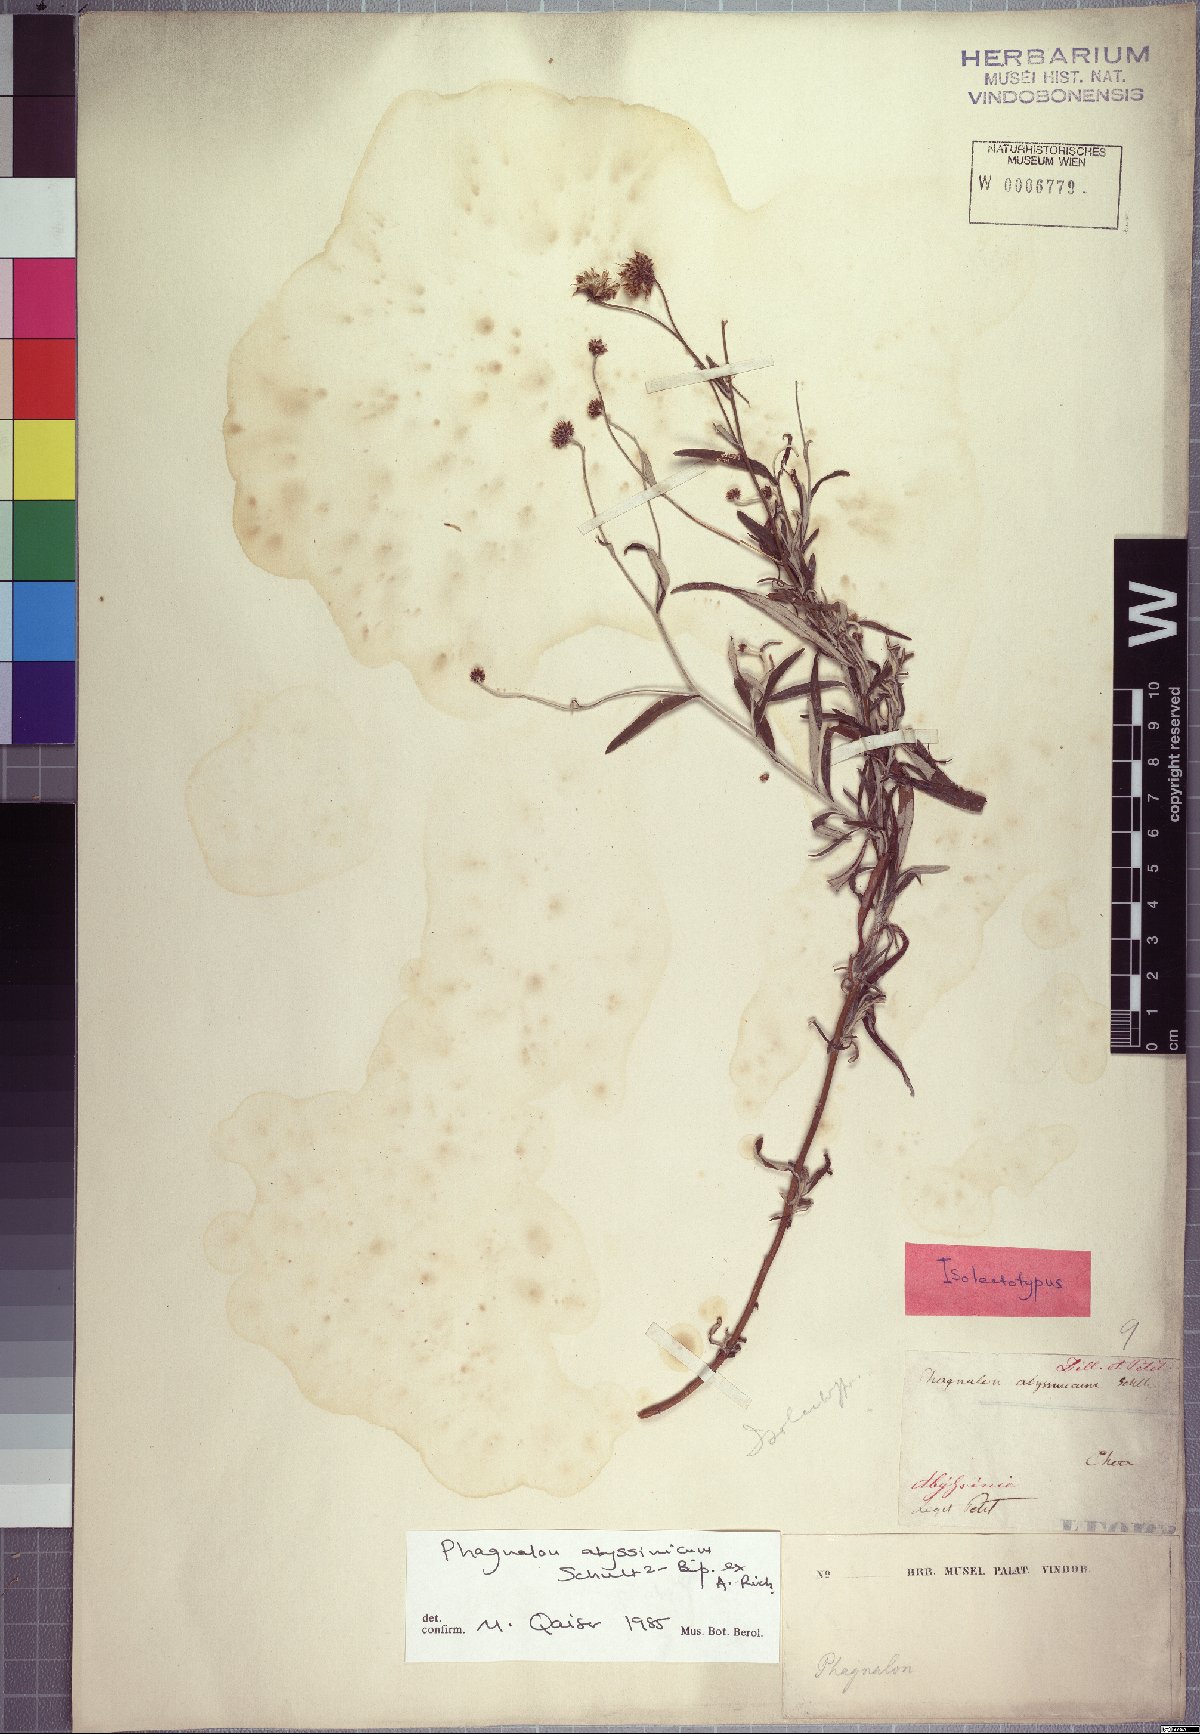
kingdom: Plantae
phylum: Tracheophyta
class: Magnoliopsida
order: Asterales
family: Asteraceae
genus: Phagnalon
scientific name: Phagnalon abyssinicum
